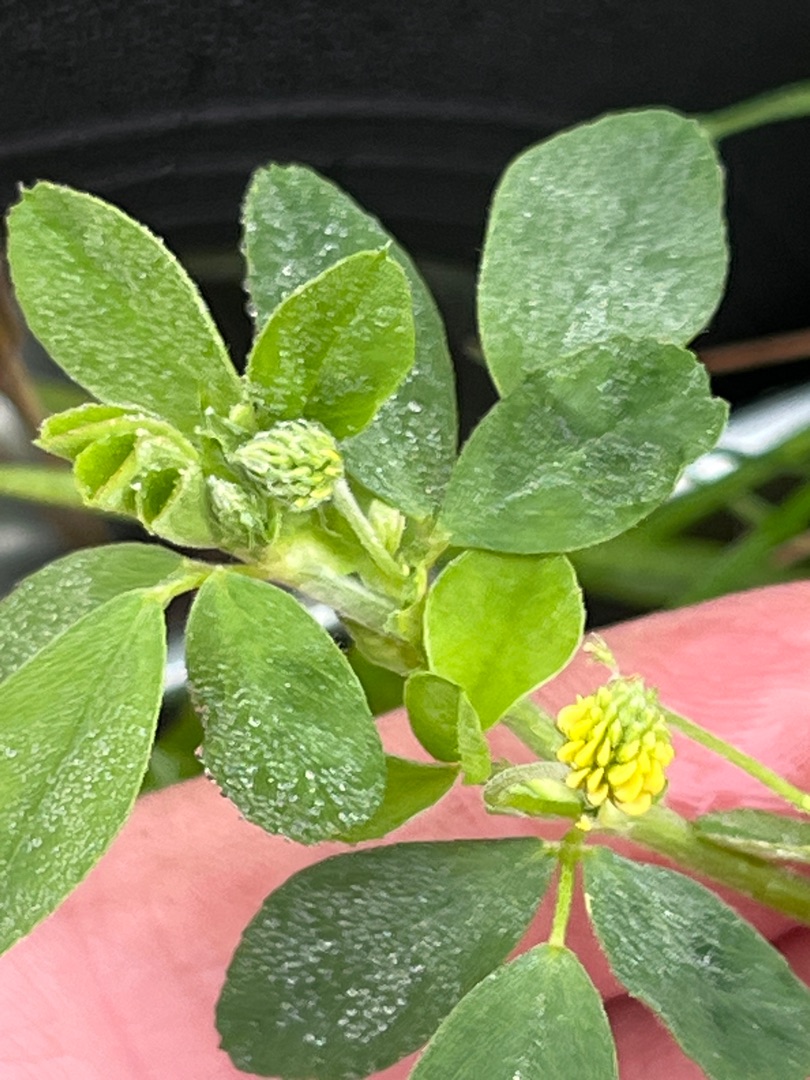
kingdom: Plantae
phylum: Tracheophyta
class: Magnoliopsida
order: Fabales
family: Fabaceae
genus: Medicago
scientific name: Medicago lupulina
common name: Humle-sneglebælg
